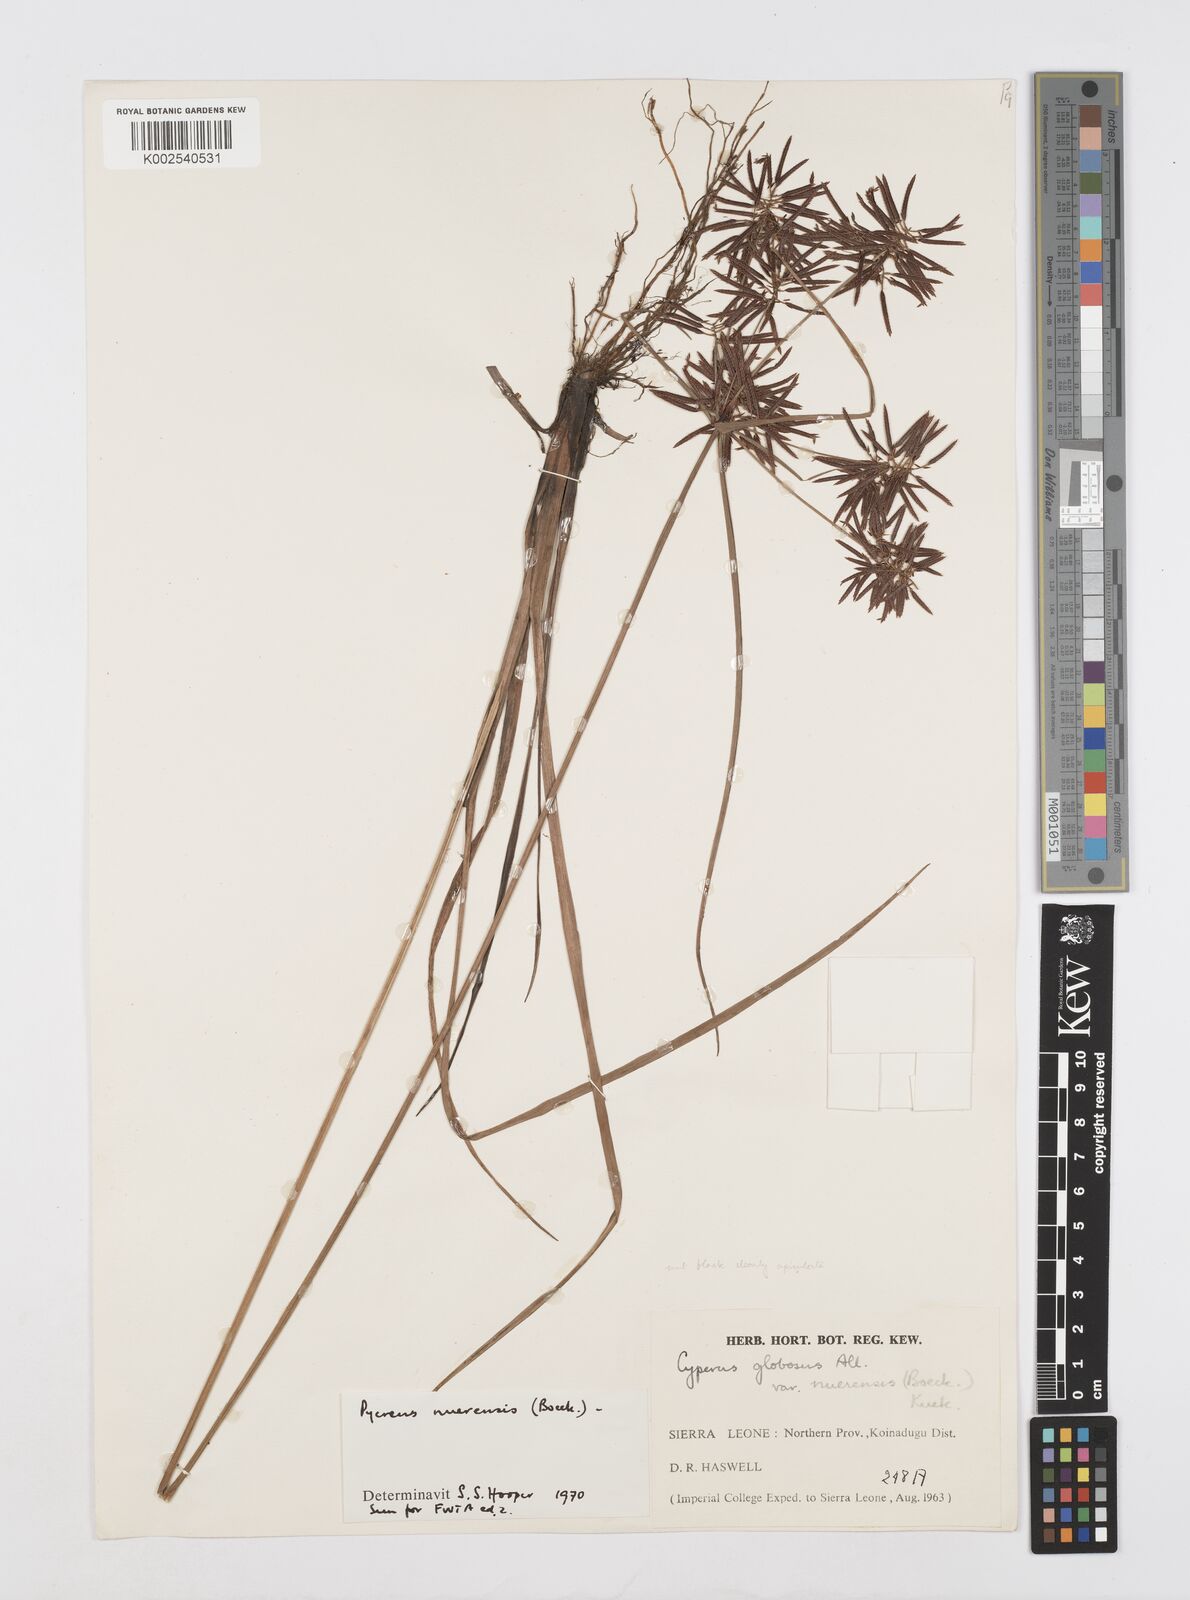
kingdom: Plantae
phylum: Tracheophyta
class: Liliopsida
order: Poales
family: Cyperaceae
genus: Cyperus
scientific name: Cyperus nuerensis
